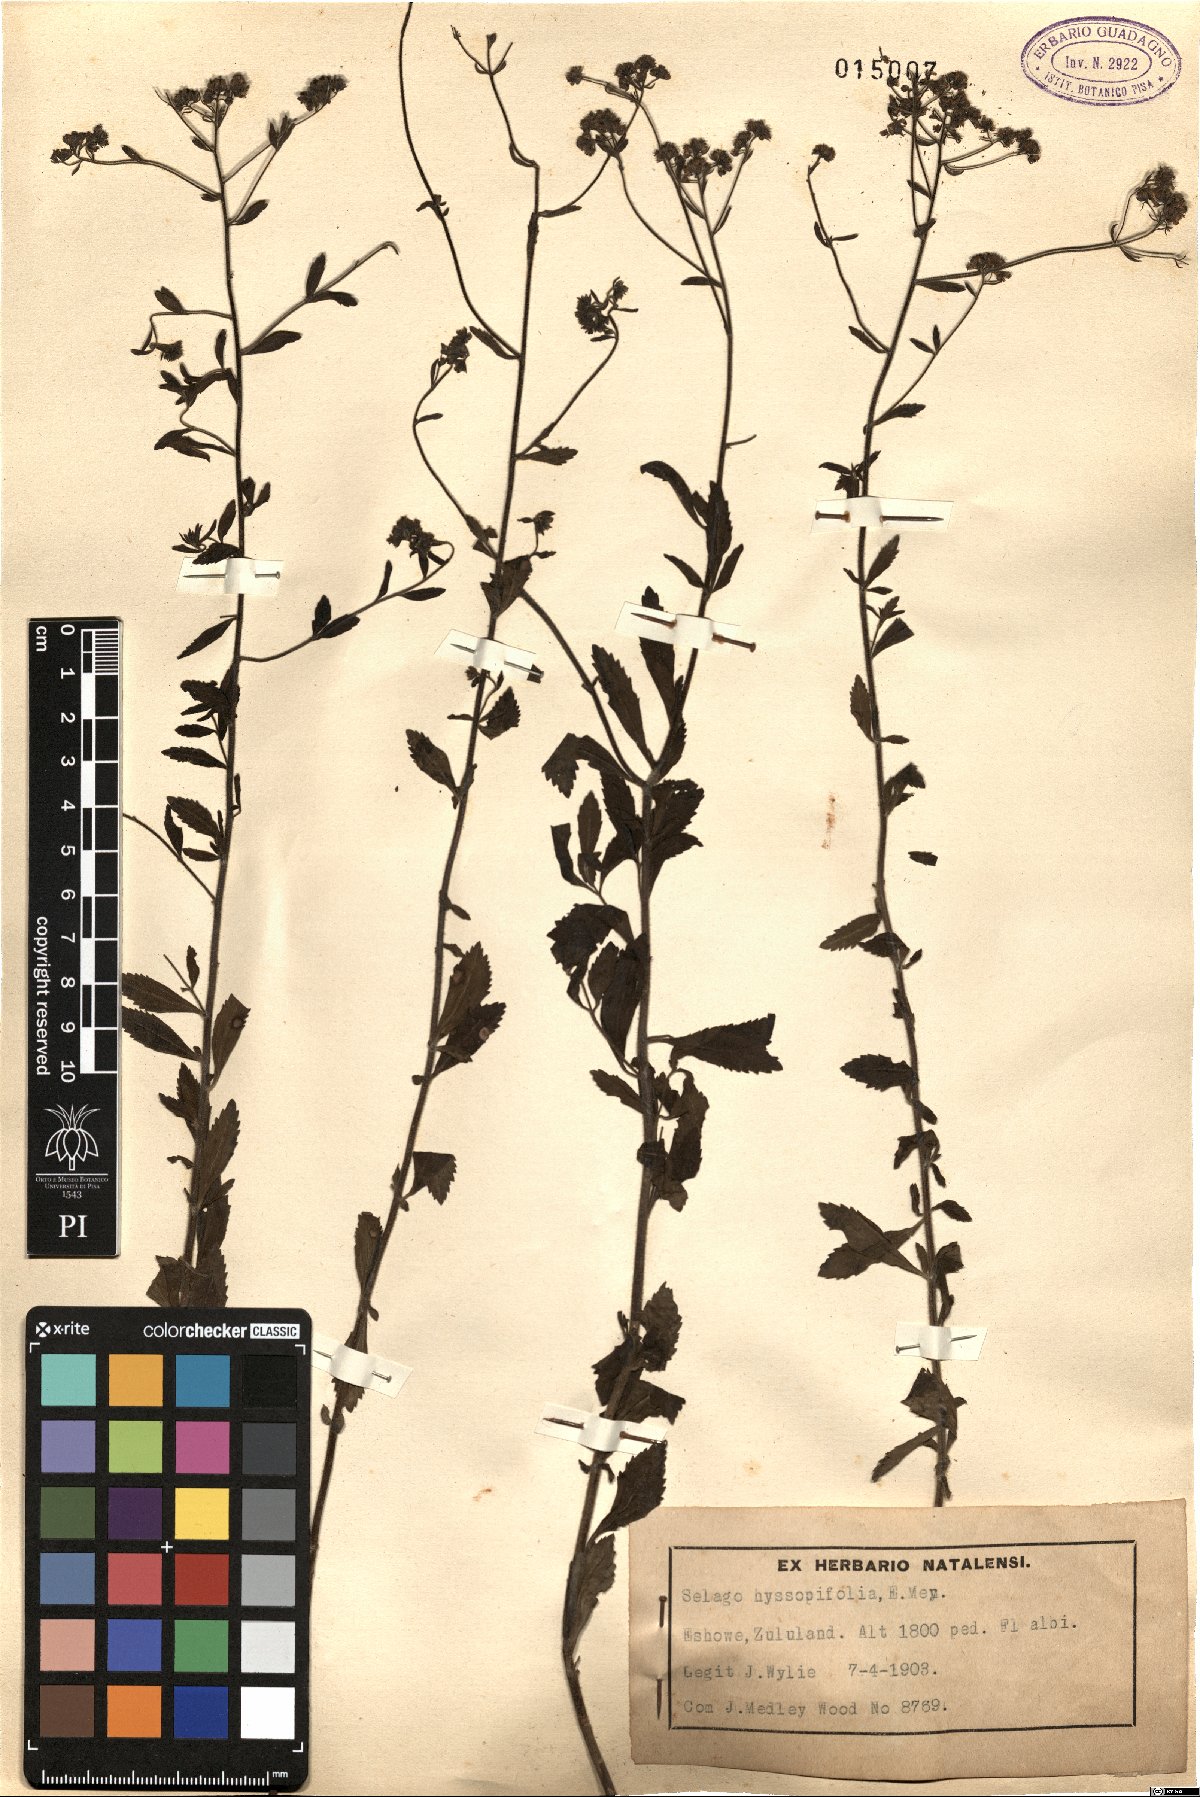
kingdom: Plantae
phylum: Tracheophyta
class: Magnoliopsida
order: Lamiales
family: Scrophulariaceae
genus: Selago
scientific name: Selago hyssopifolia
